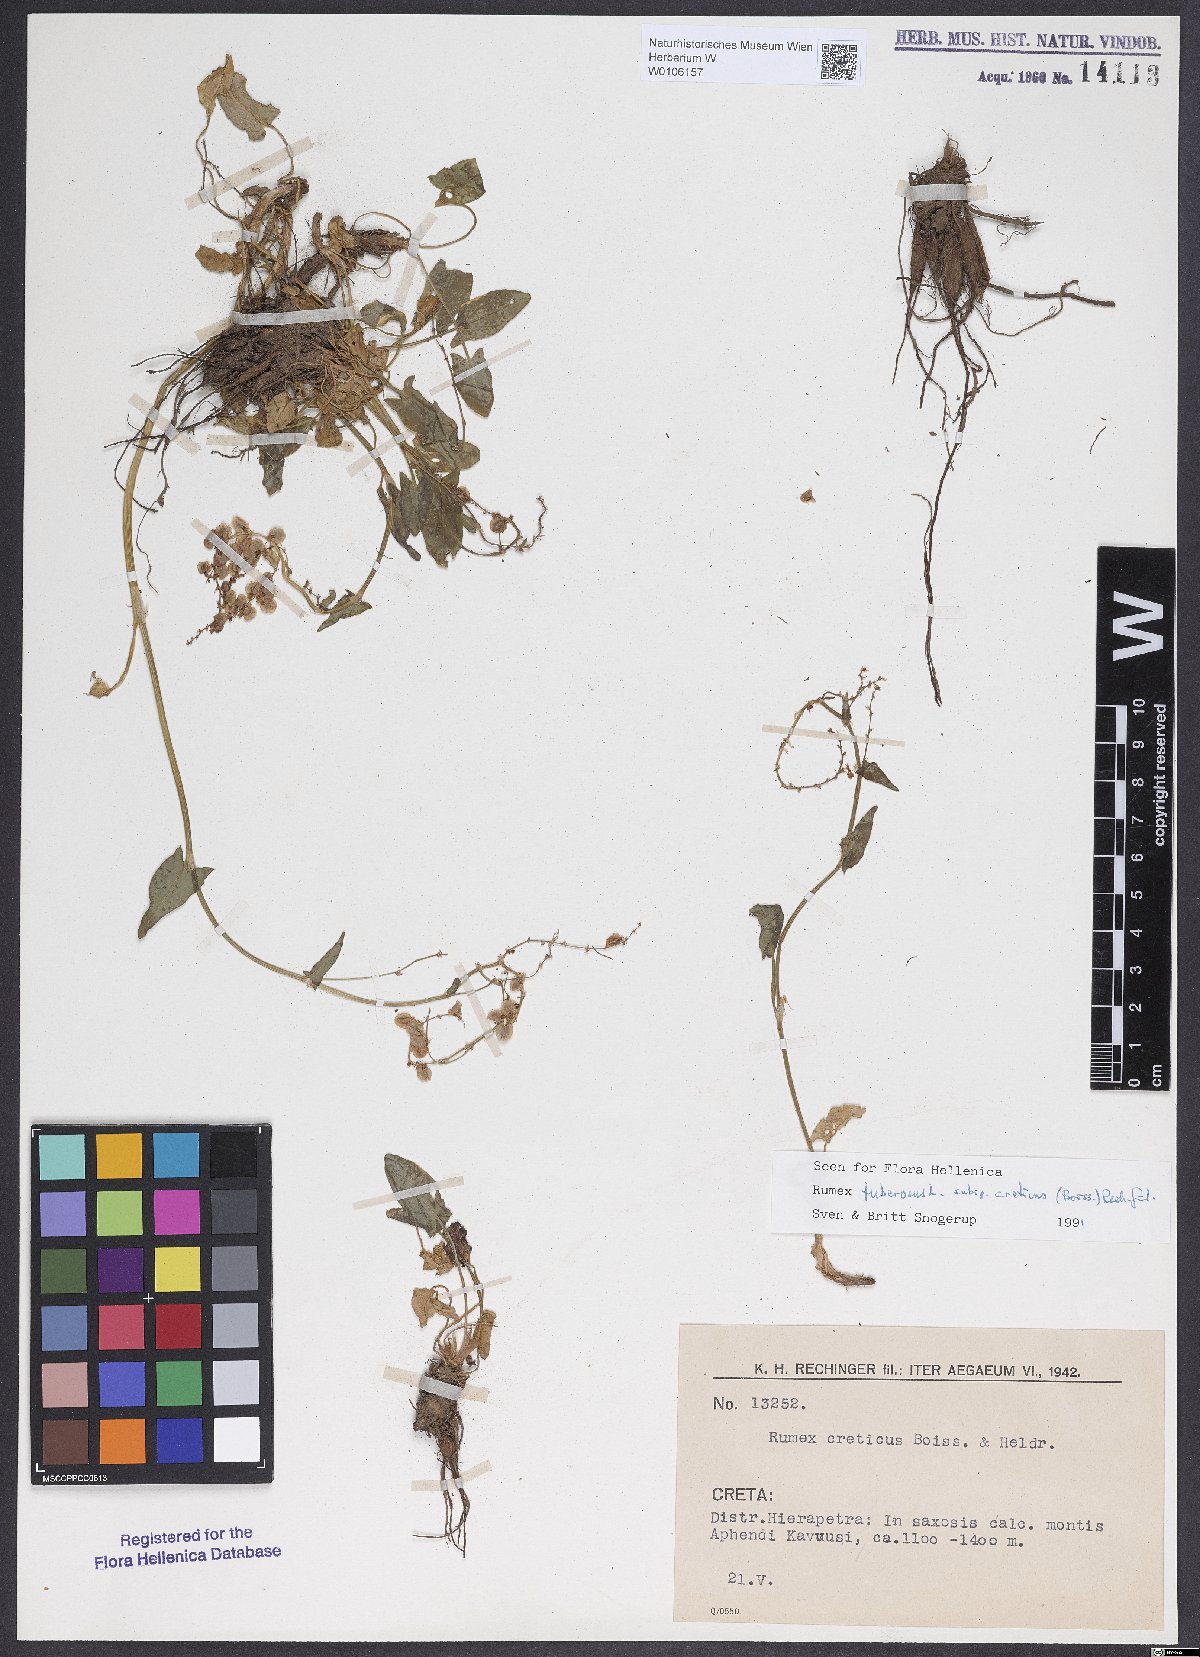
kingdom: Plantae
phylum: Tracheophyta
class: Magnoliopsida
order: Caryophyllales
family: Polygonaceae
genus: Rumex
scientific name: Rumex tuberosus
